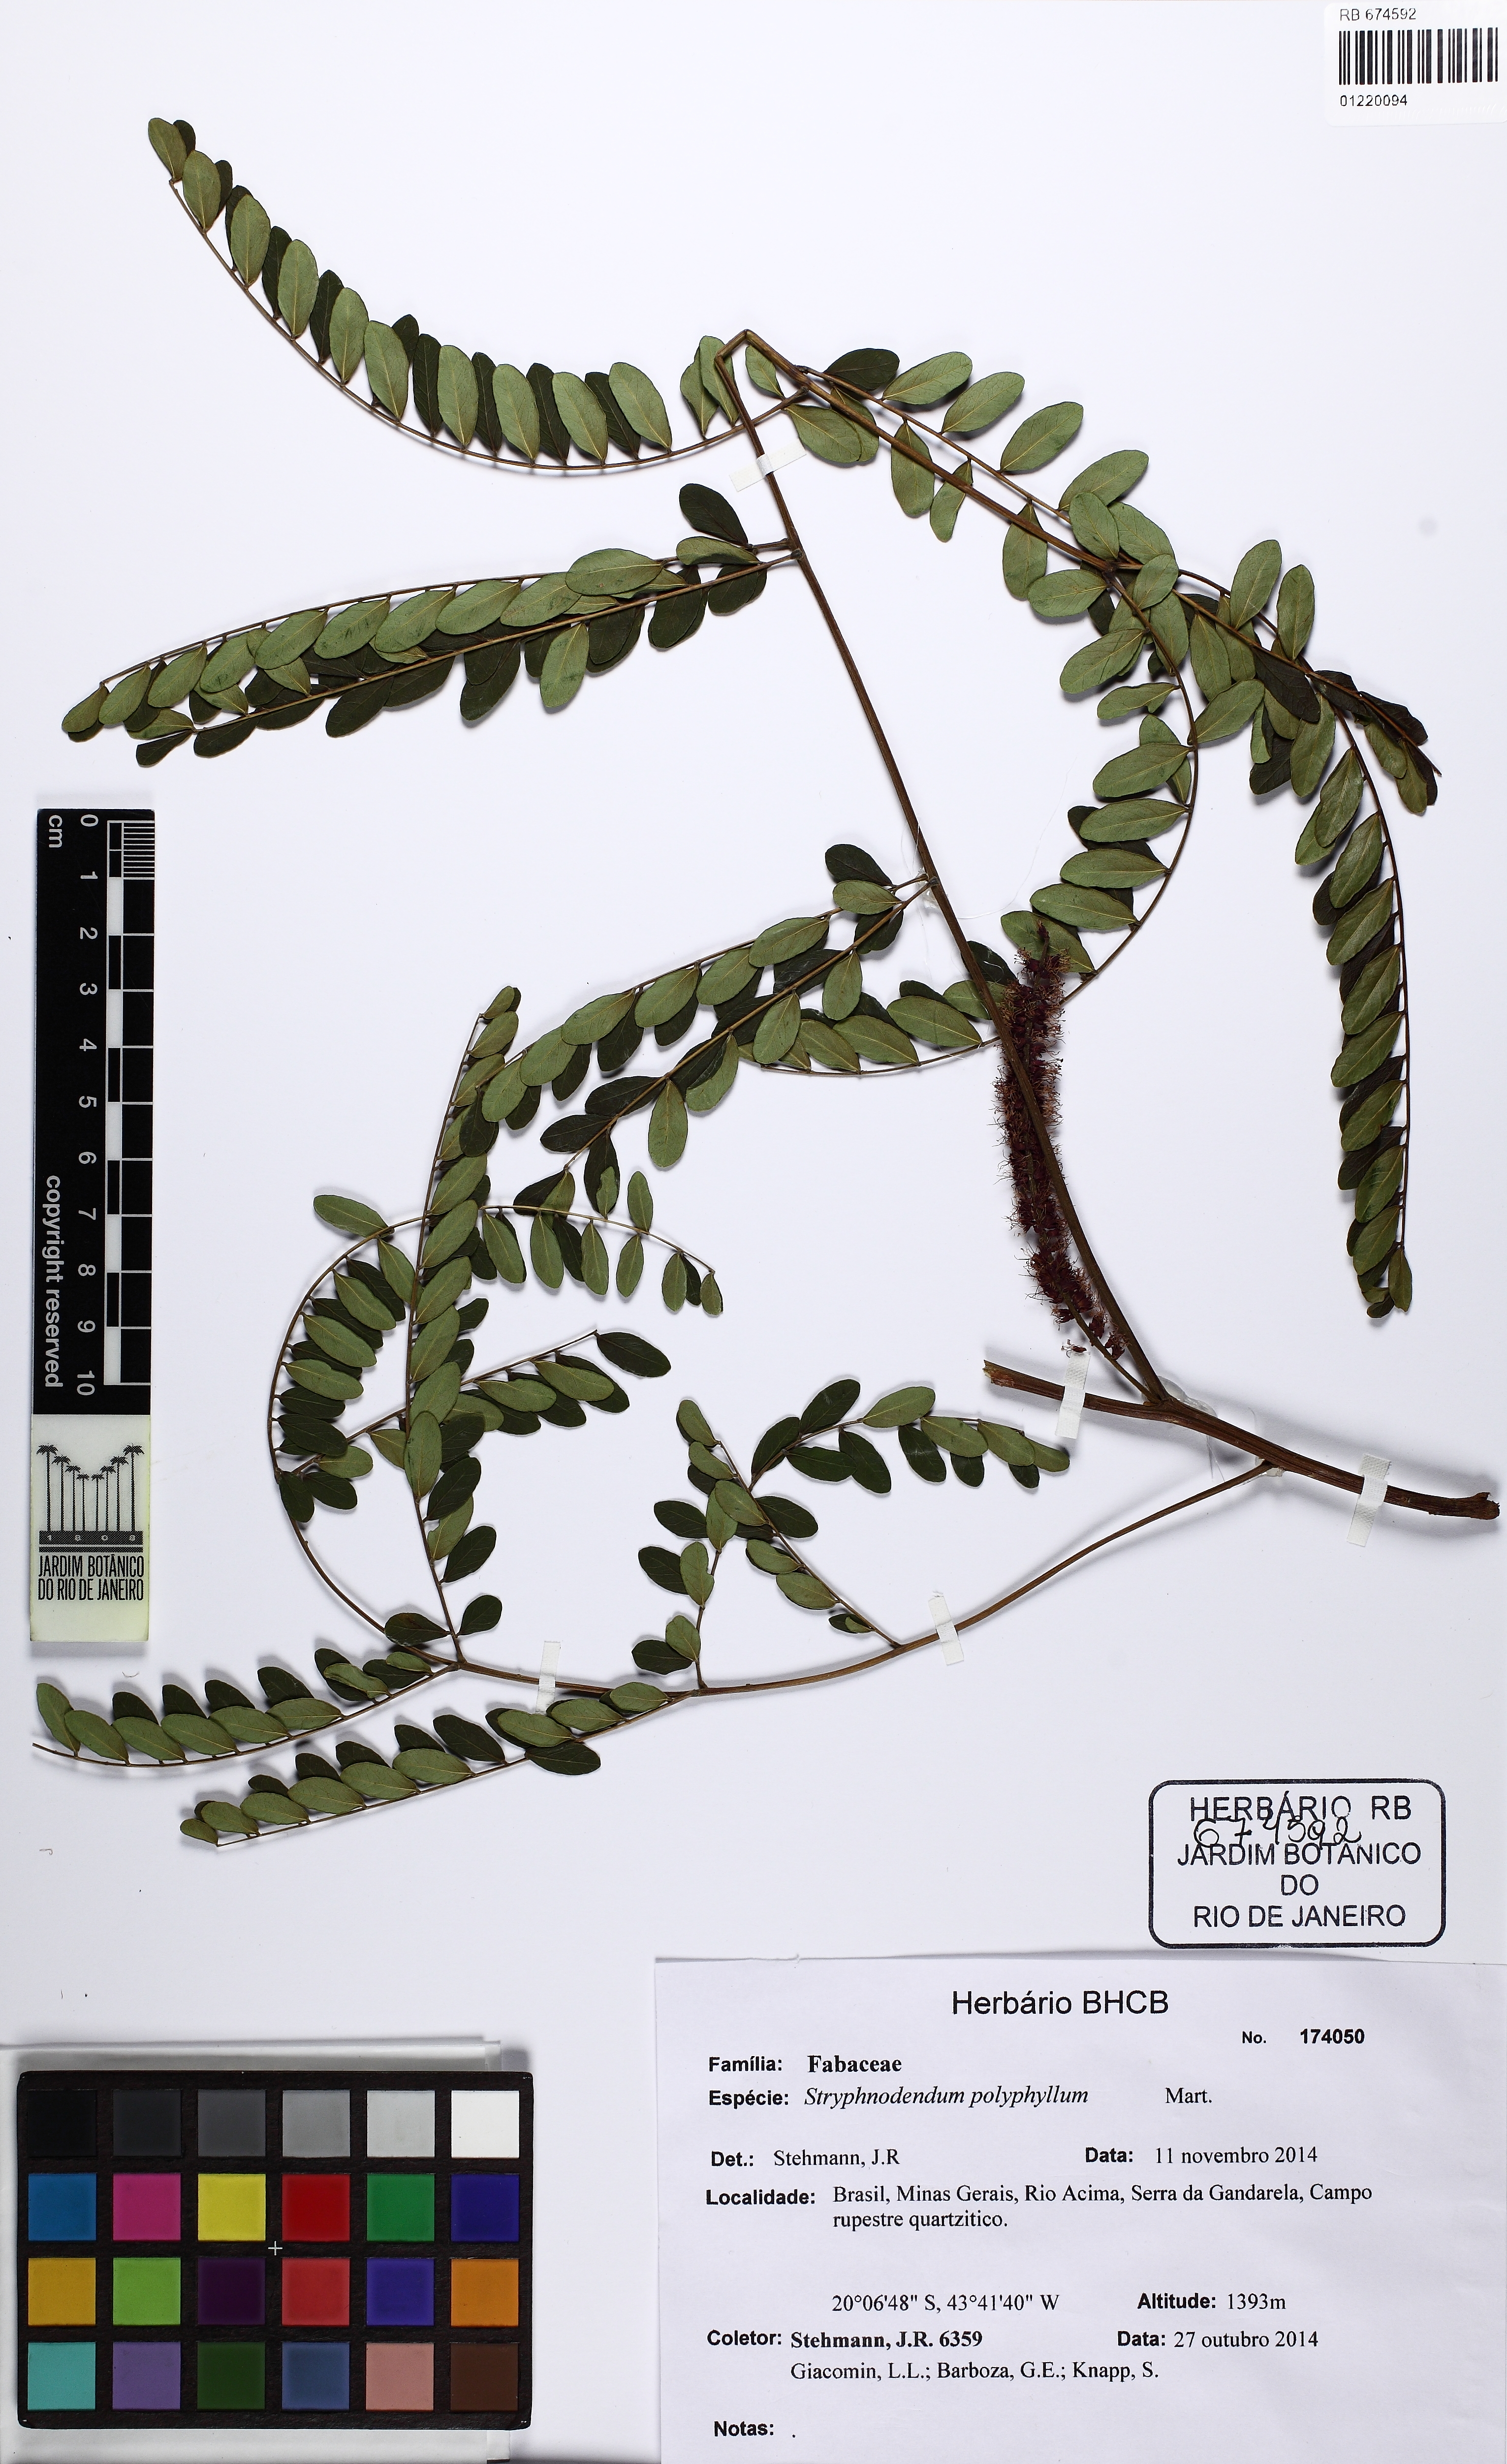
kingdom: Plantae
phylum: Tracheophyta
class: Magnoliopsida
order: Fabales
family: Fabaceae
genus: Stryphnodendron
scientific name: Stryphnodendron polyphyllum
